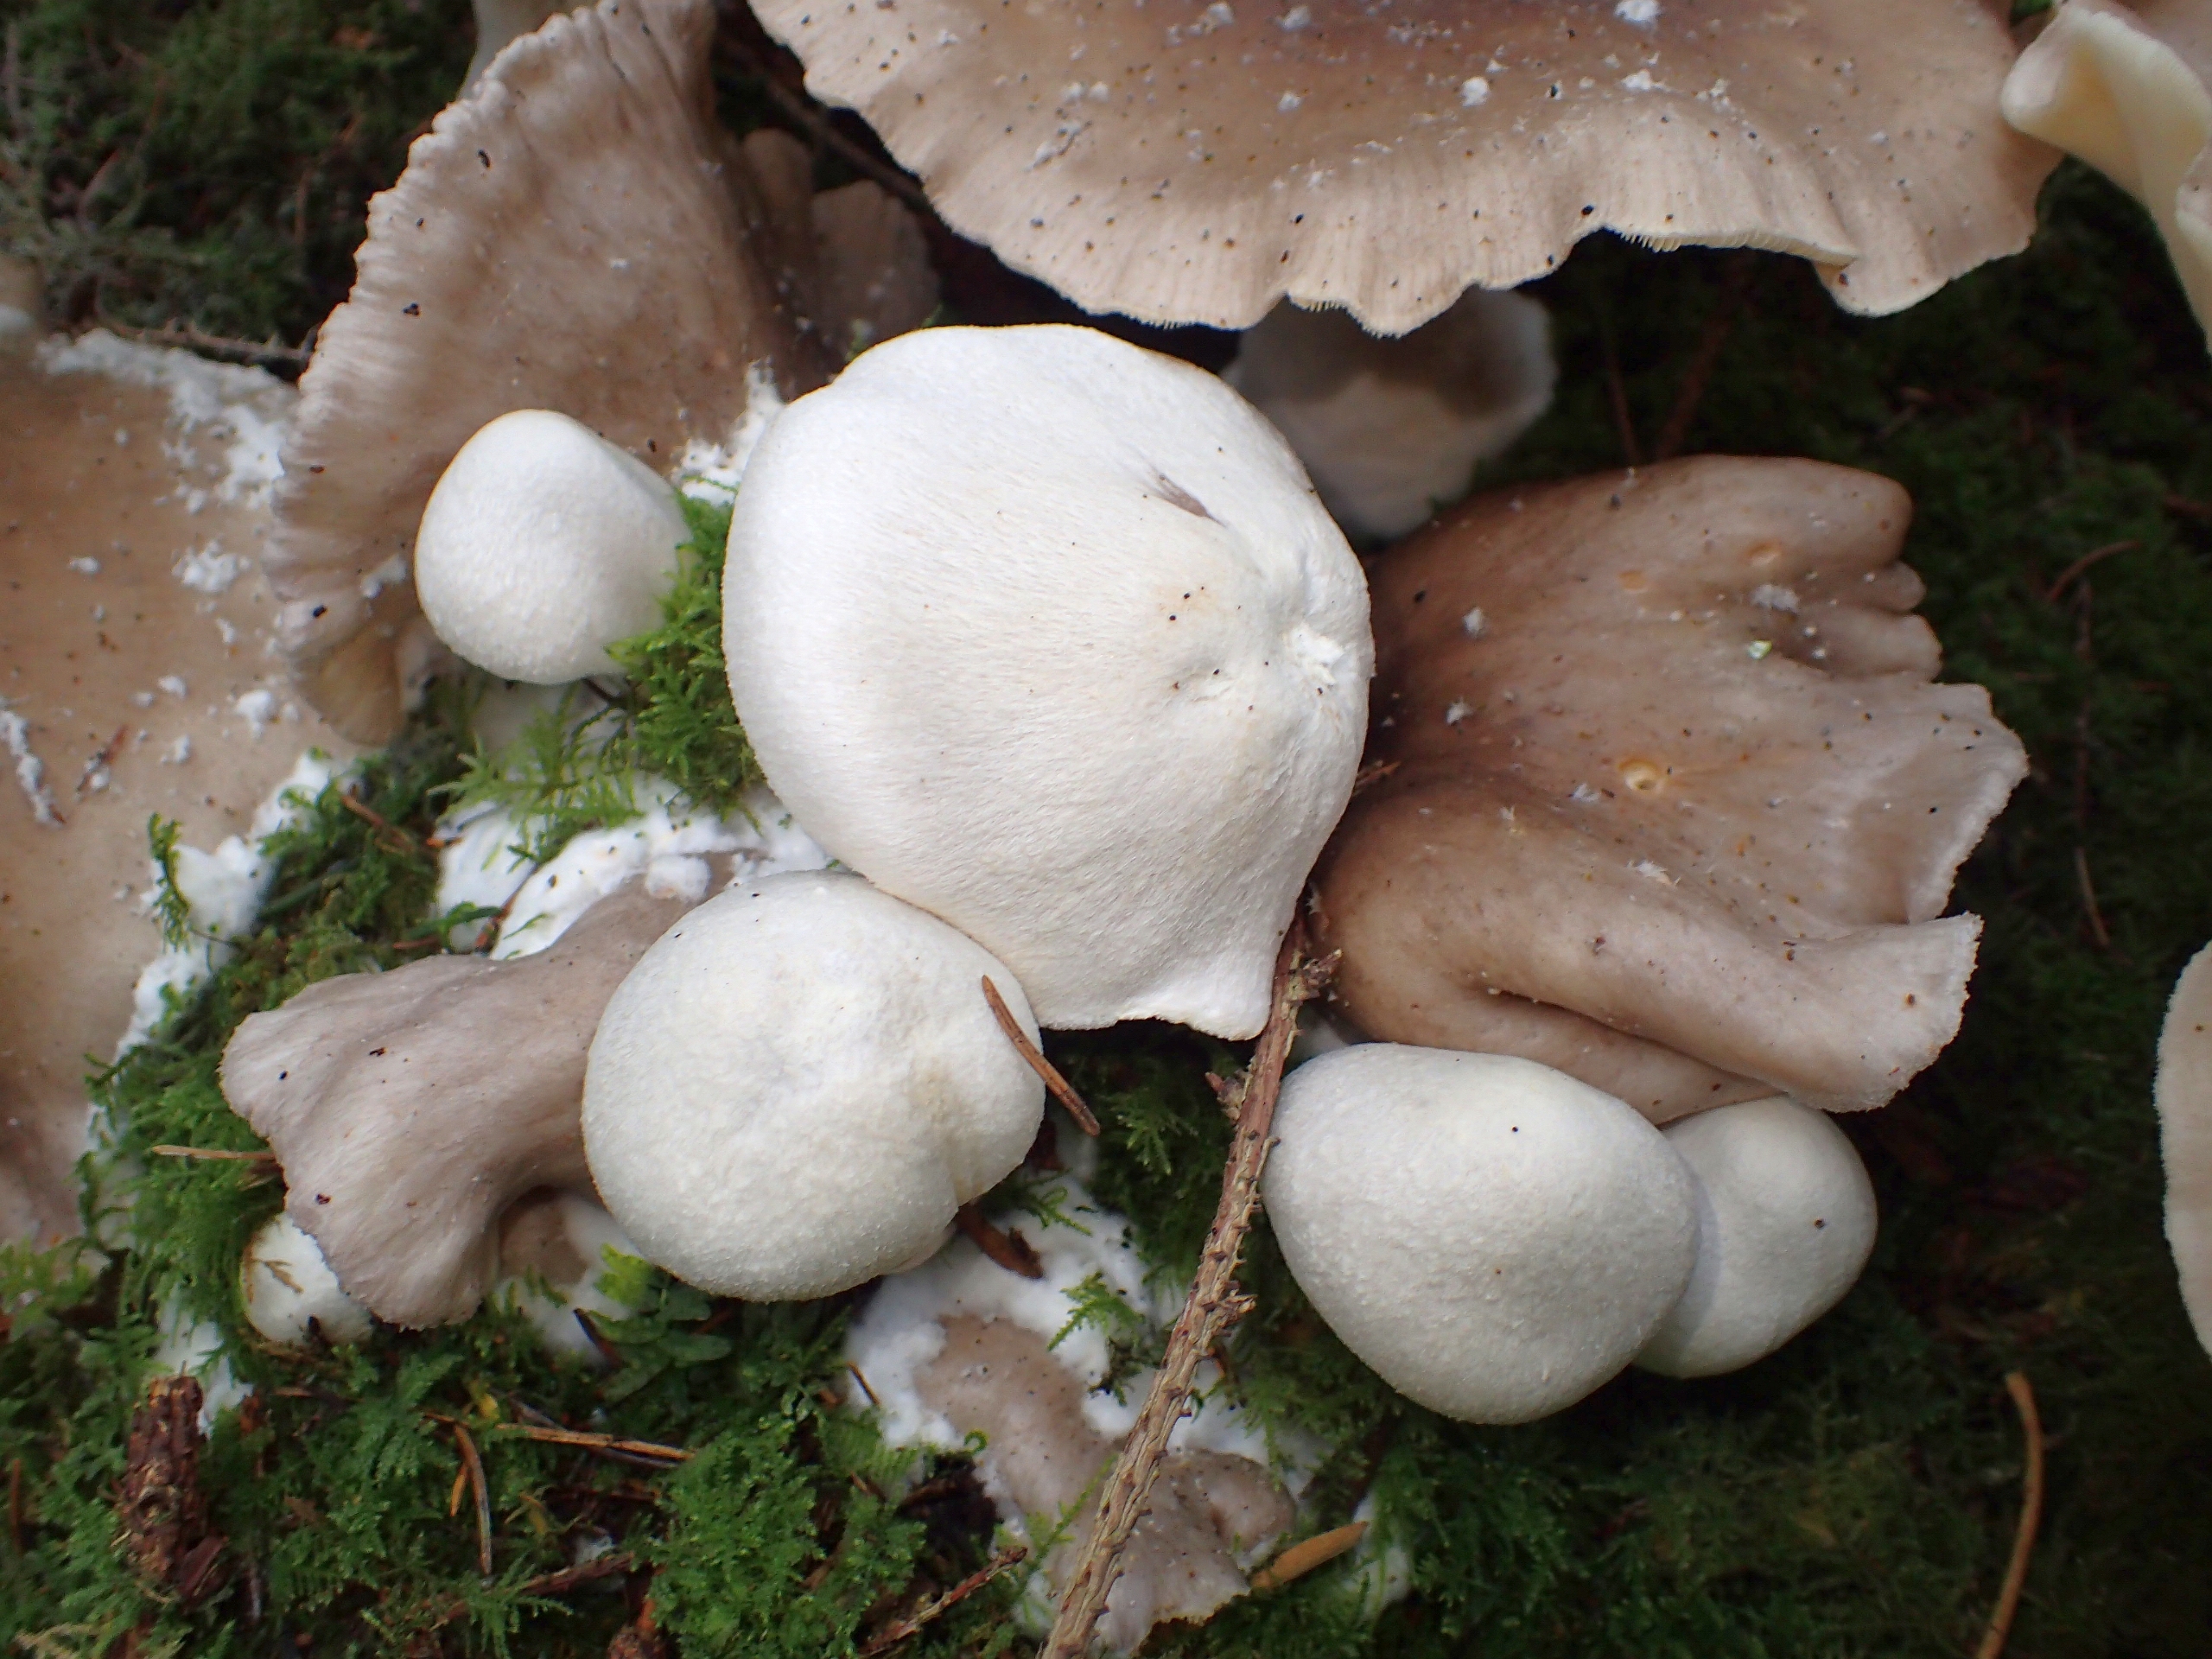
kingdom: Fungi
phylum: Basidiomycota
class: Agaricomycetes
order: Agaricales
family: Pluteaceae
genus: Volvariella
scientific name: Volvariella surrecta
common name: Snyltende posesvamp
